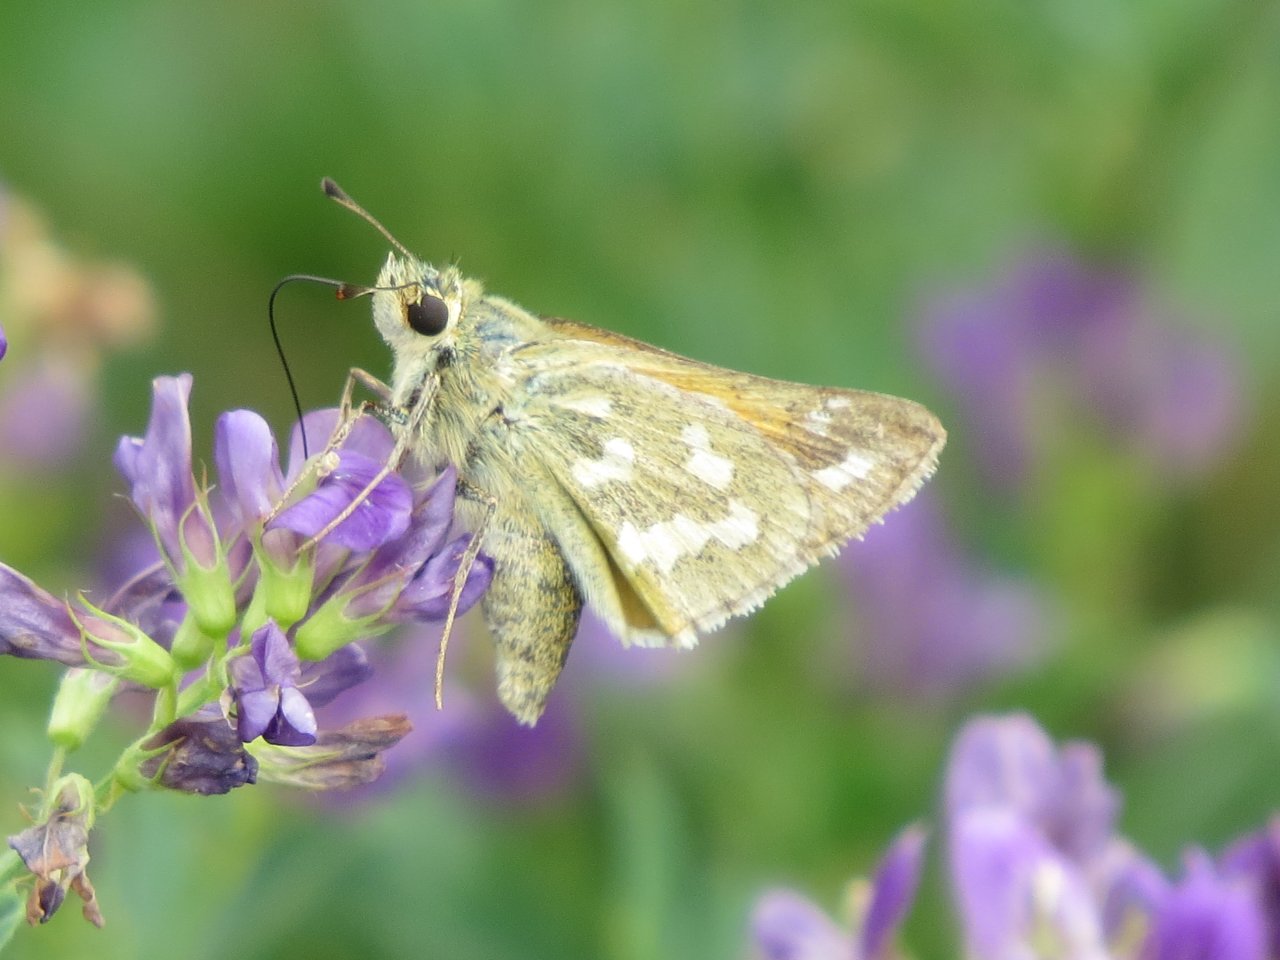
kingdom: Animalia
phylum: Arthropoda
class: Insecta
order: Lepidoptera
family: Hesperiidae
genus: Hesperia
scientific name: Hesperia comma
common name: Common Branded Skipper
